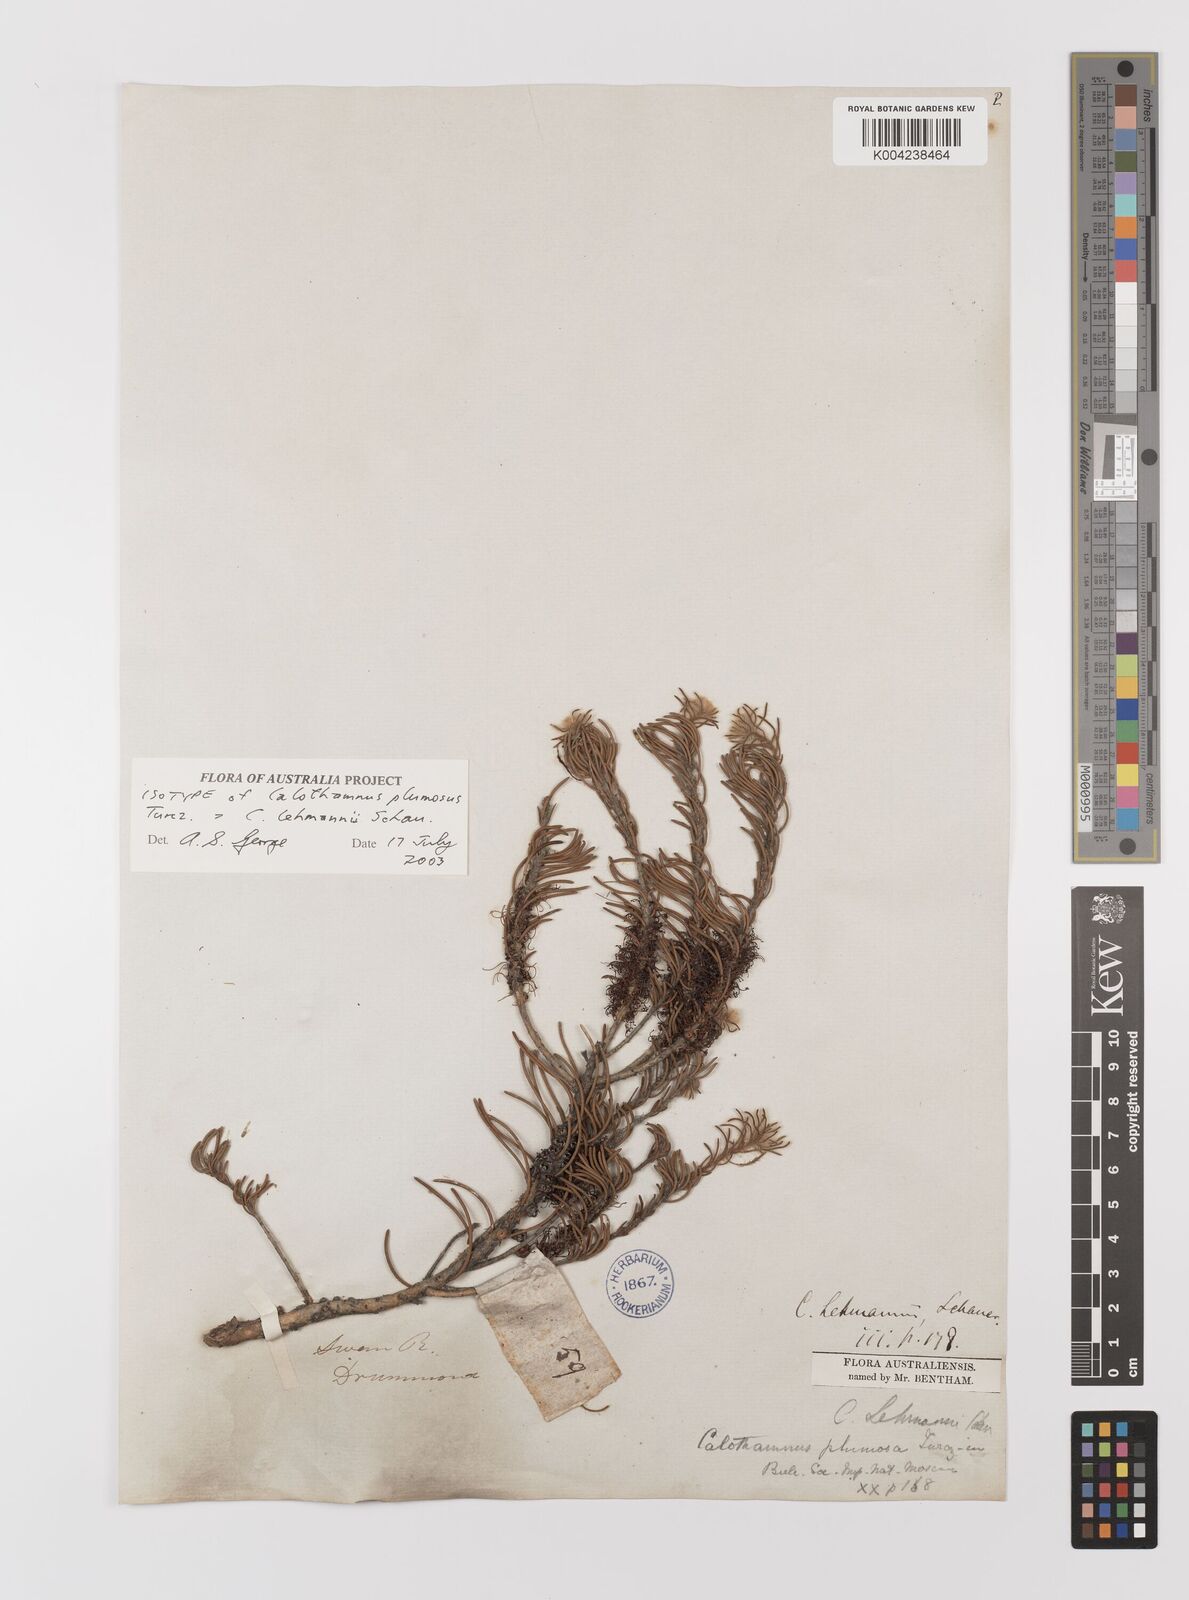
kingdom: Plantae
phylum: Tracheophyta
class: Magnoliopsida
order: Myrtales
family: Myrtaceae
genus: Melaleuca
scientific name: Melaleuca johannis-lehmannii
